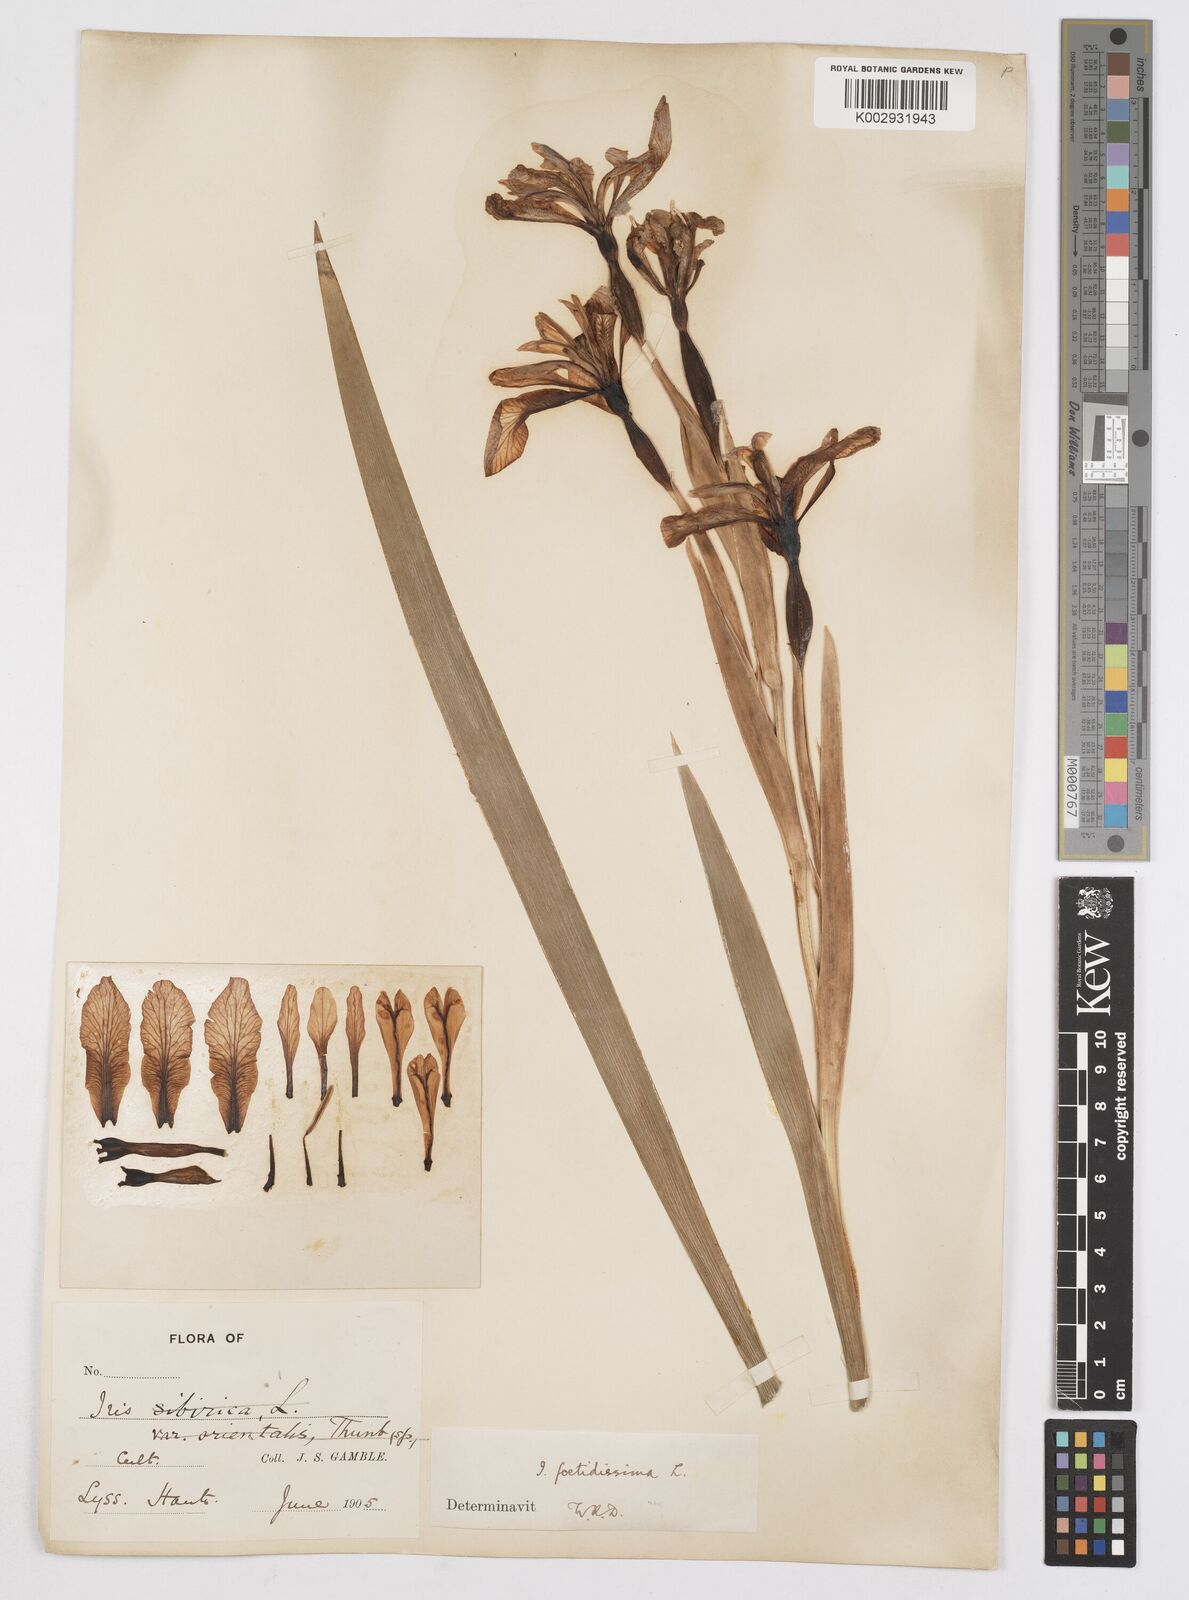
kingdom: Plantae
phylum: Tracheophyta
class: Liliopsida
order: Asparagales
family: Iridaceae
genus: Iris
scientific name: Iris foetidissima
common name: Stinking iris
